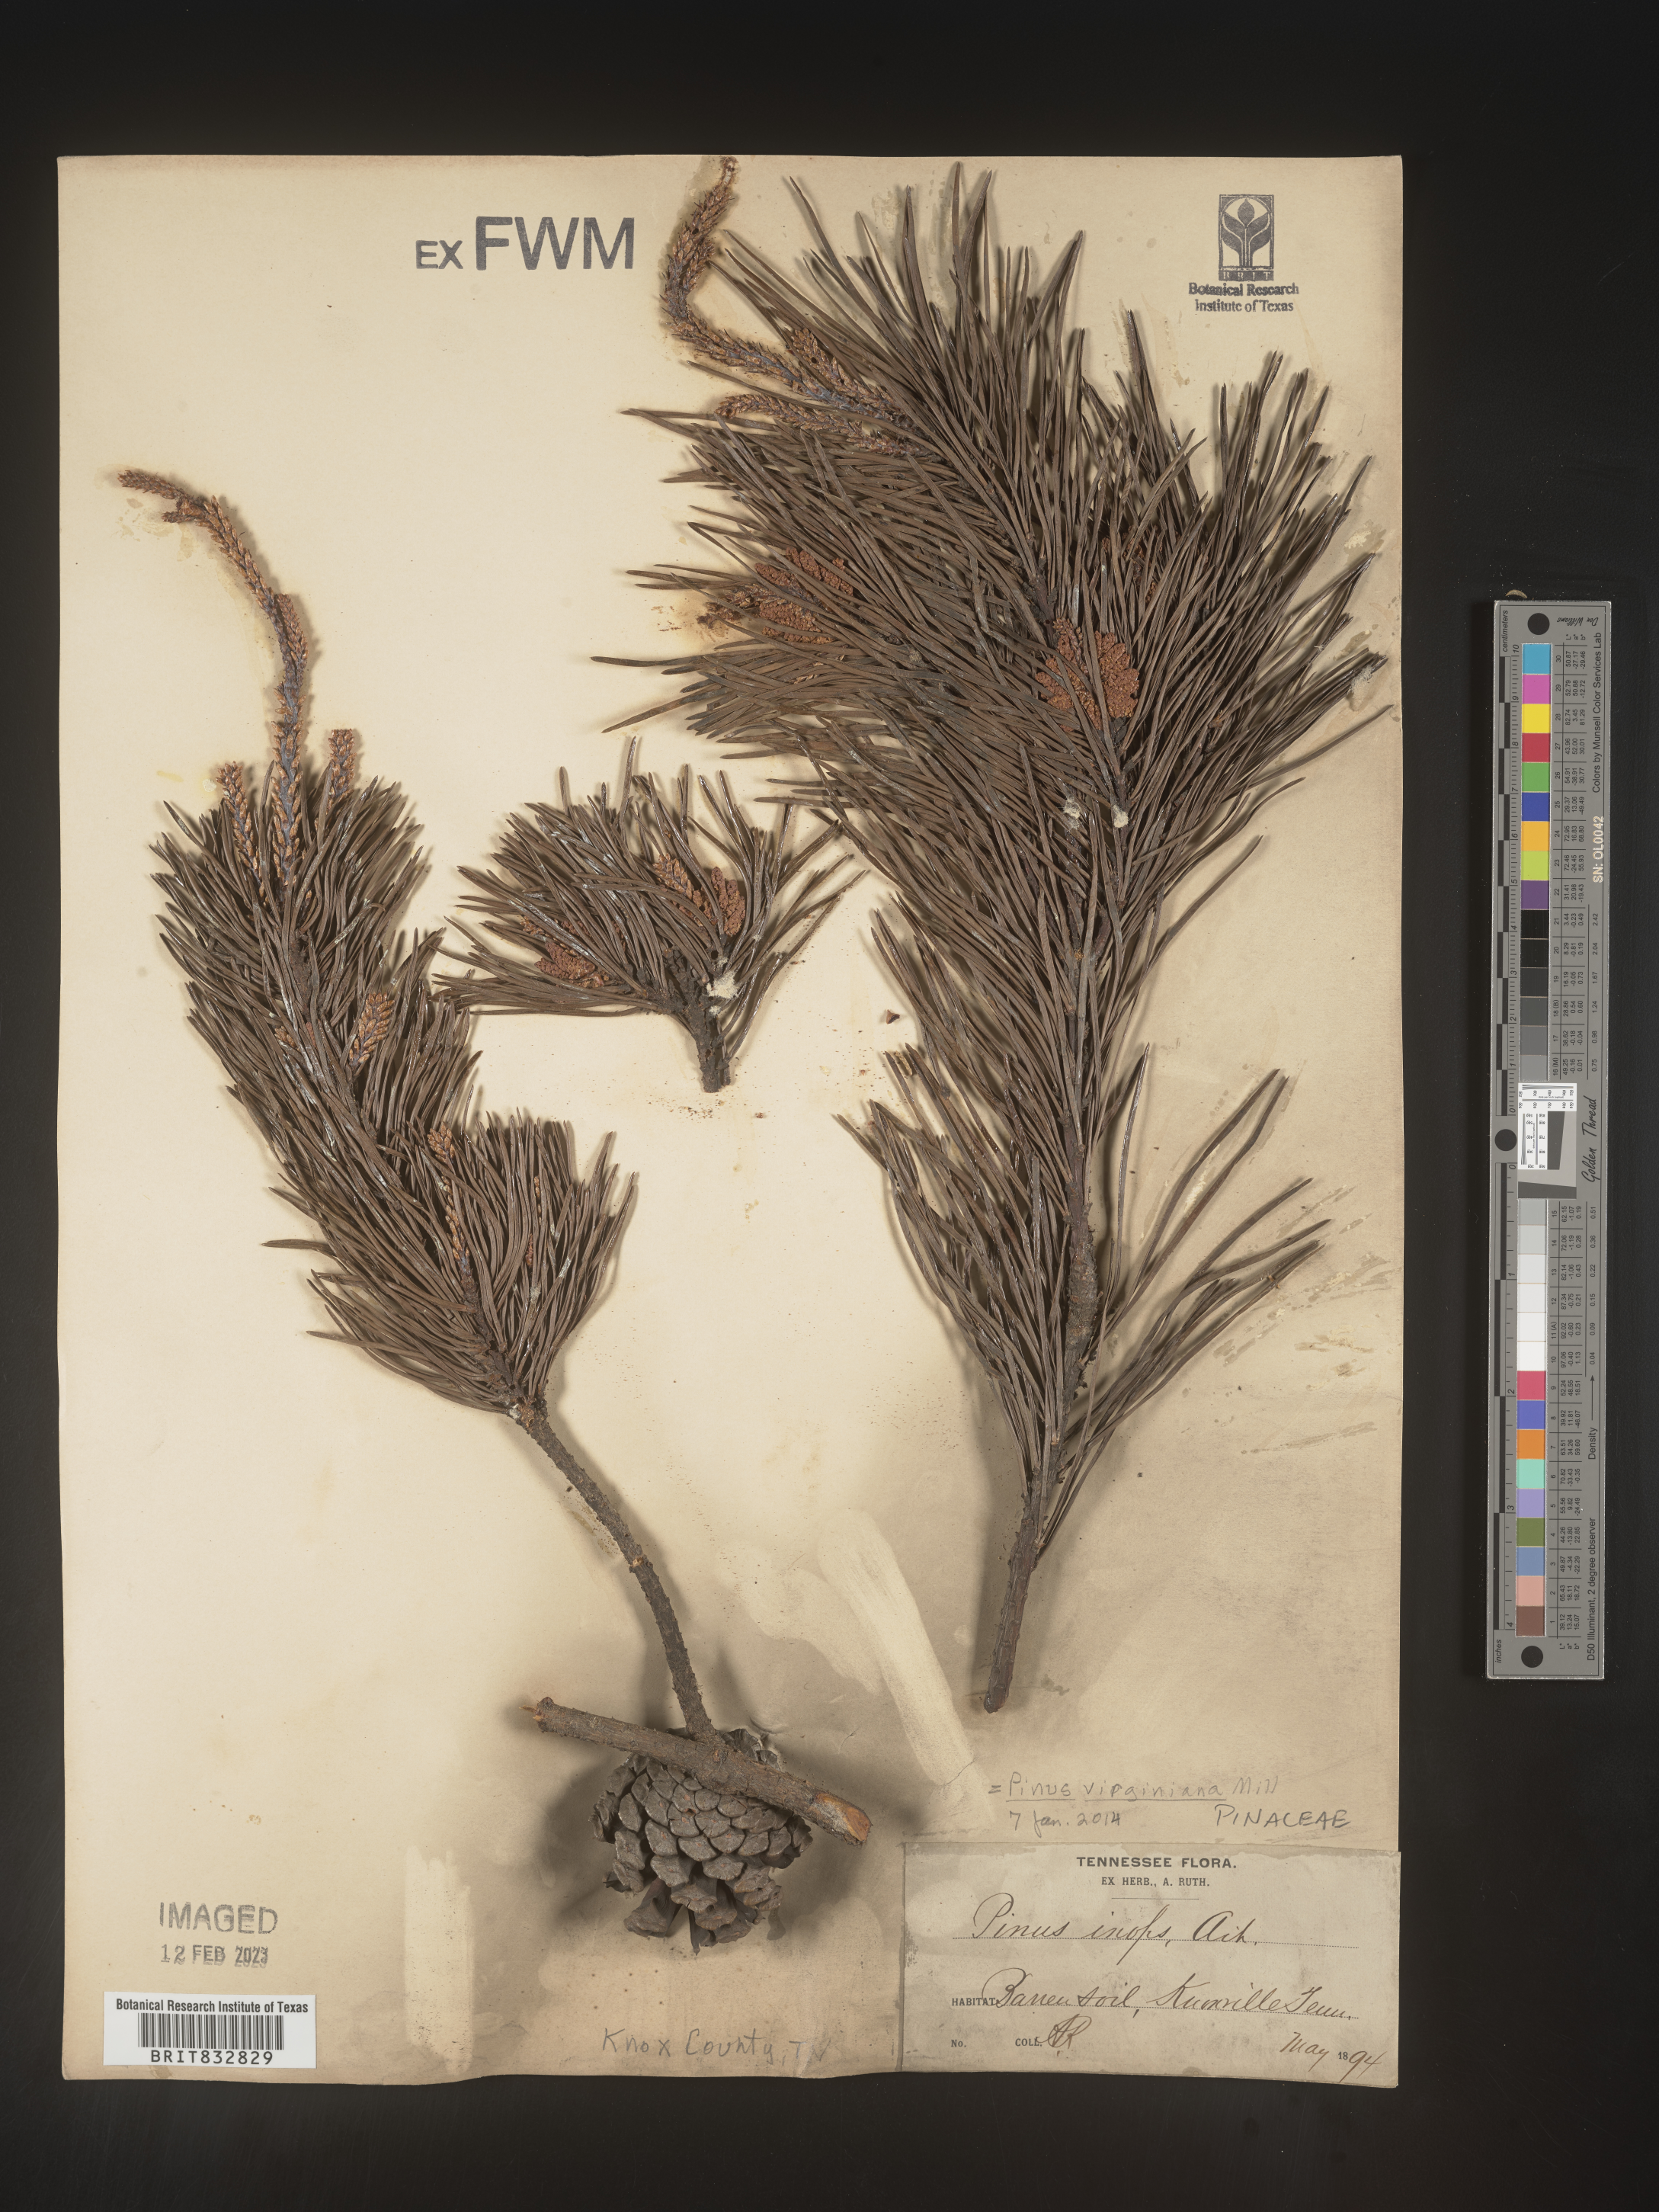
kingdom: Plantae
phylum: Tracheophyta
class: Pinopsida
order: Pinales
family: Pinaceae
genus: Pinus
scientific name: Pinus virginiana
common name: Scrub pine
